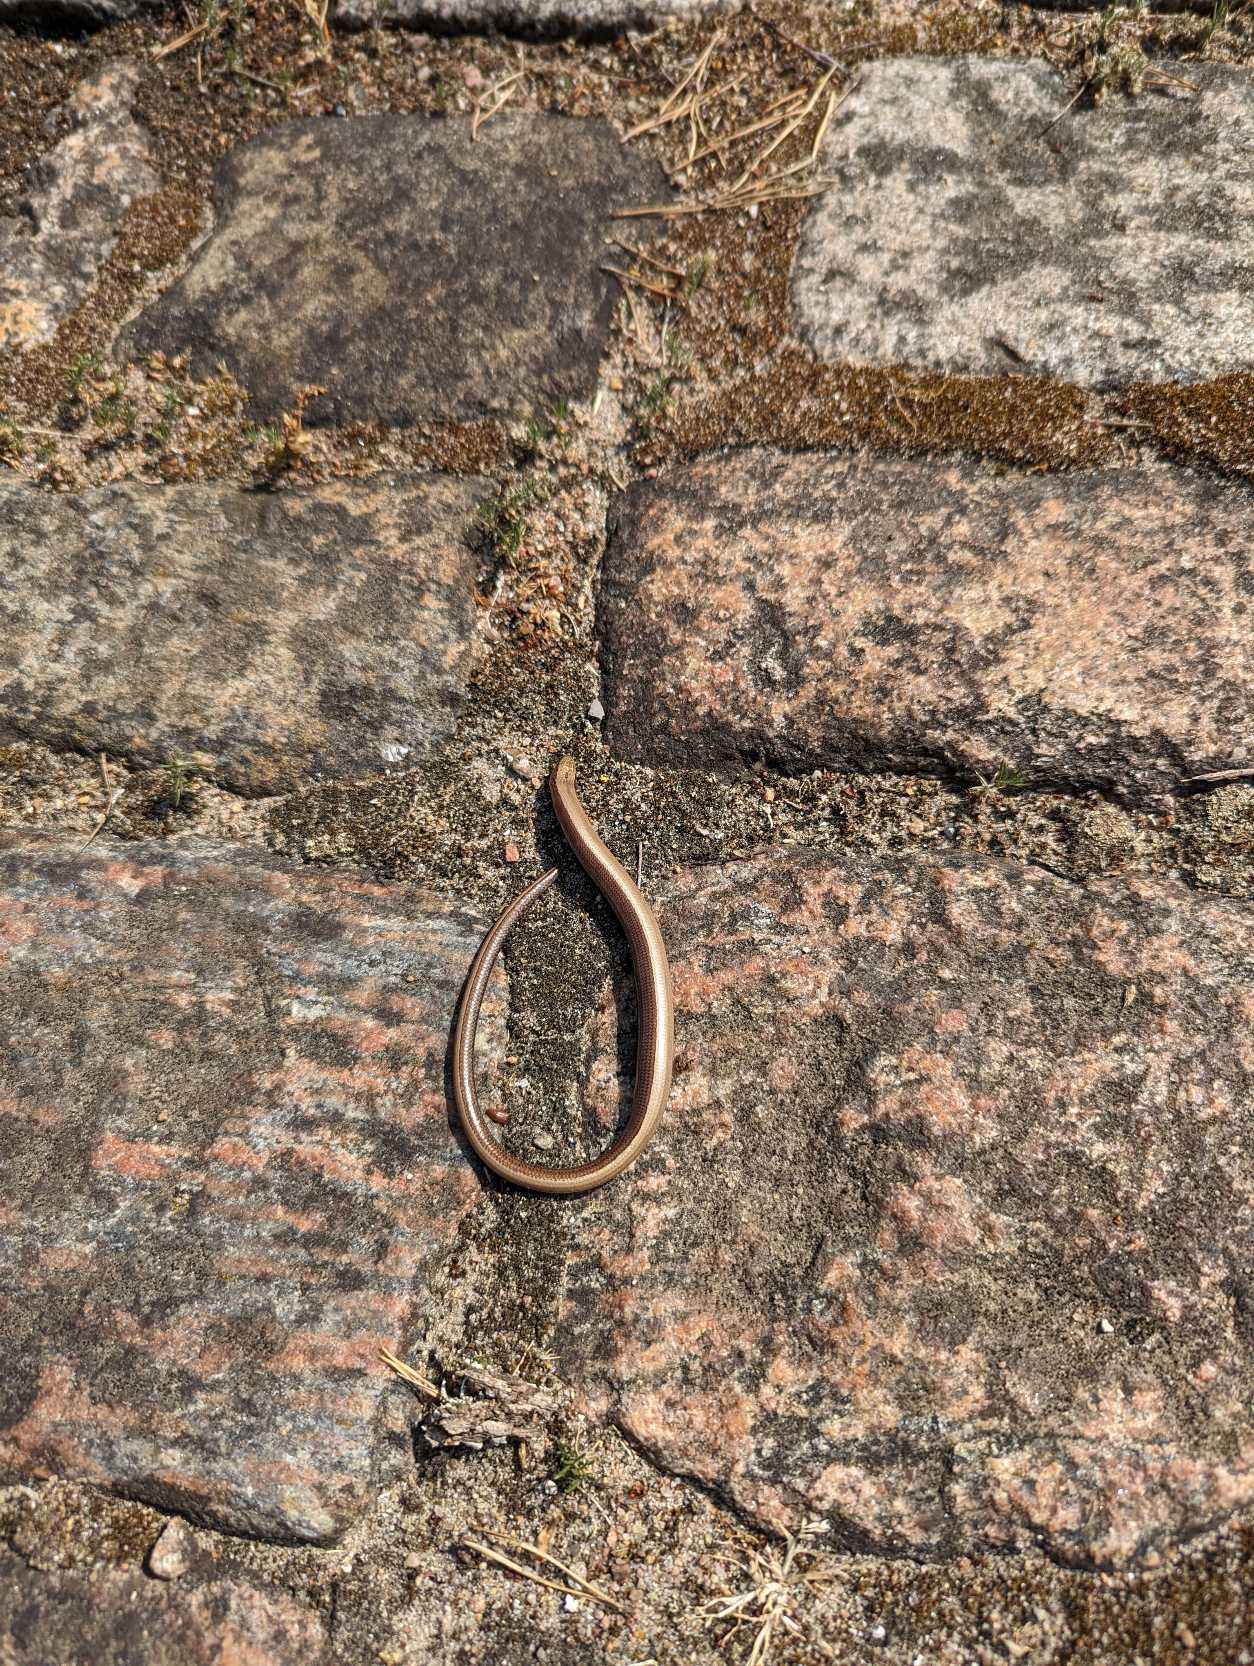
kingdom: Animalia
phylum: Chordata
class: Squamata
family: Anguidae
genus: Anguis
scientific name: Anguis fragilis
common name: Stålorm
